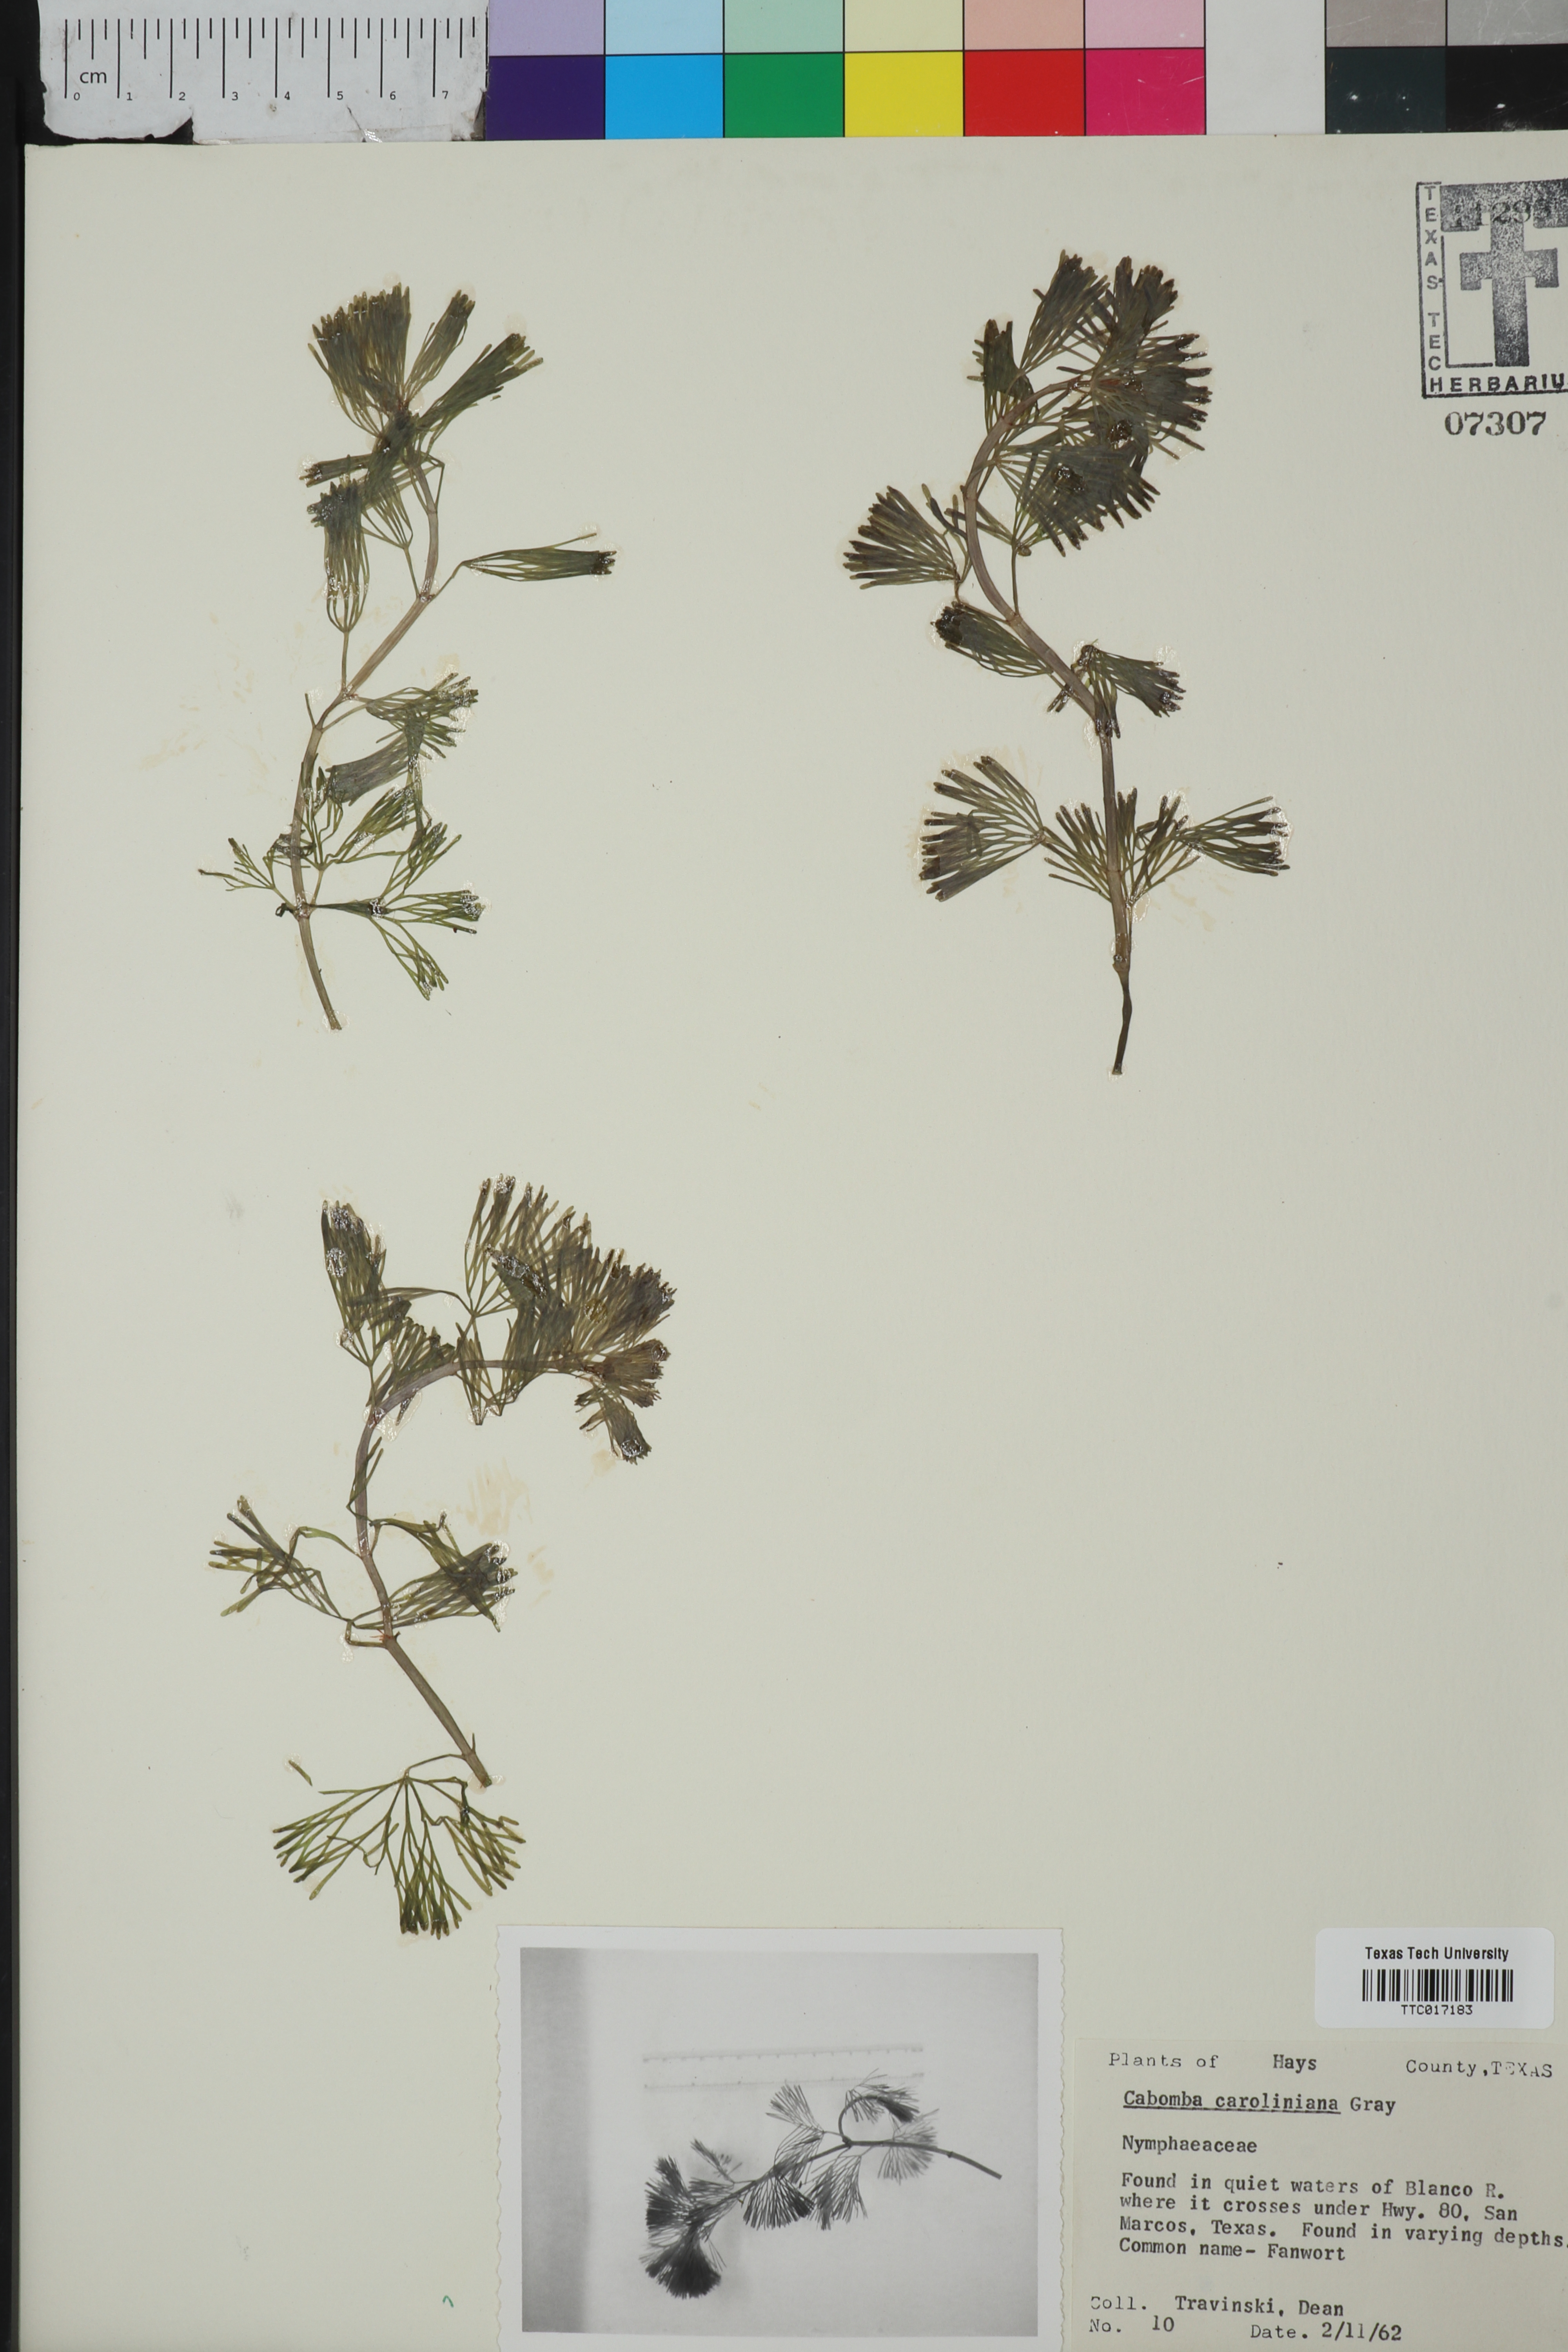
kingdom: Plantae
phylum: Tracheophyta
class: Magnoliopsida
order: Nymphaeales
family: Cabombaceae
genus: Cabomba
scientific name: Cabomba caroliniana
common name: Fanwort
